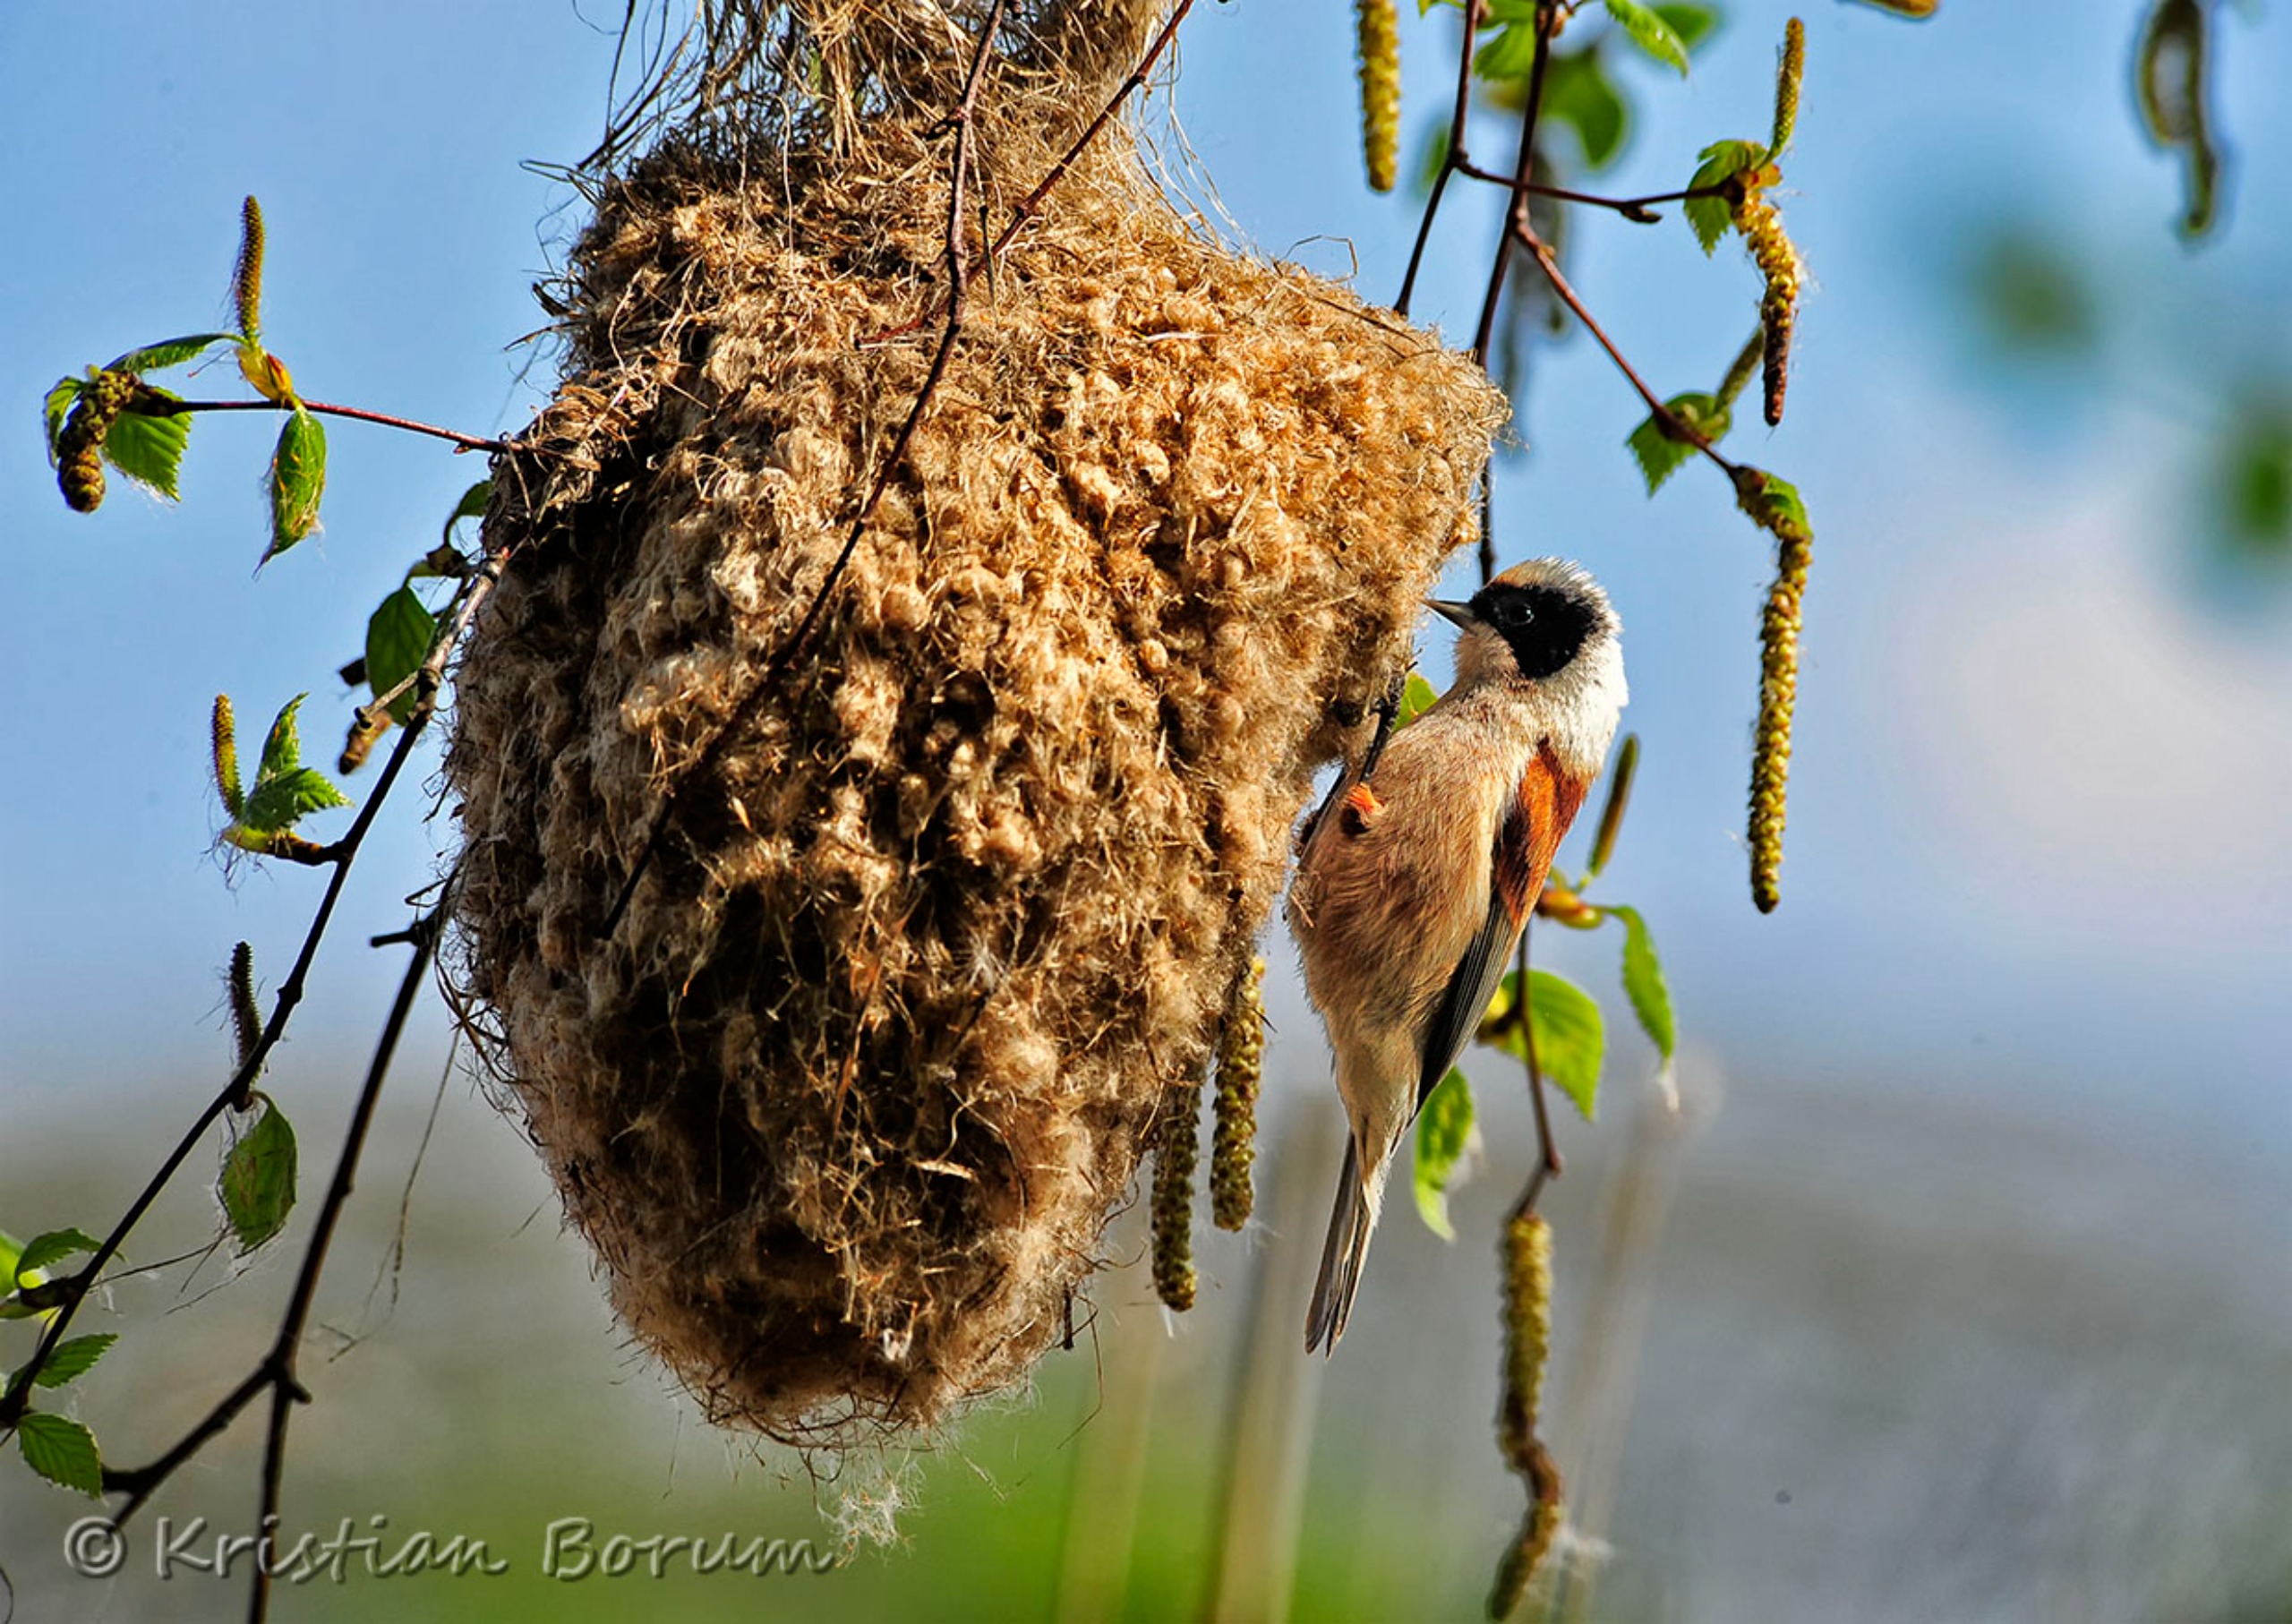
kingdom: Animalia
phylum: Chordata
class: Aves
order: Passeriformes
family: Remizidae
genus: Remiz
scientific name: Remiz pendulinus
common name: Pungmejse
